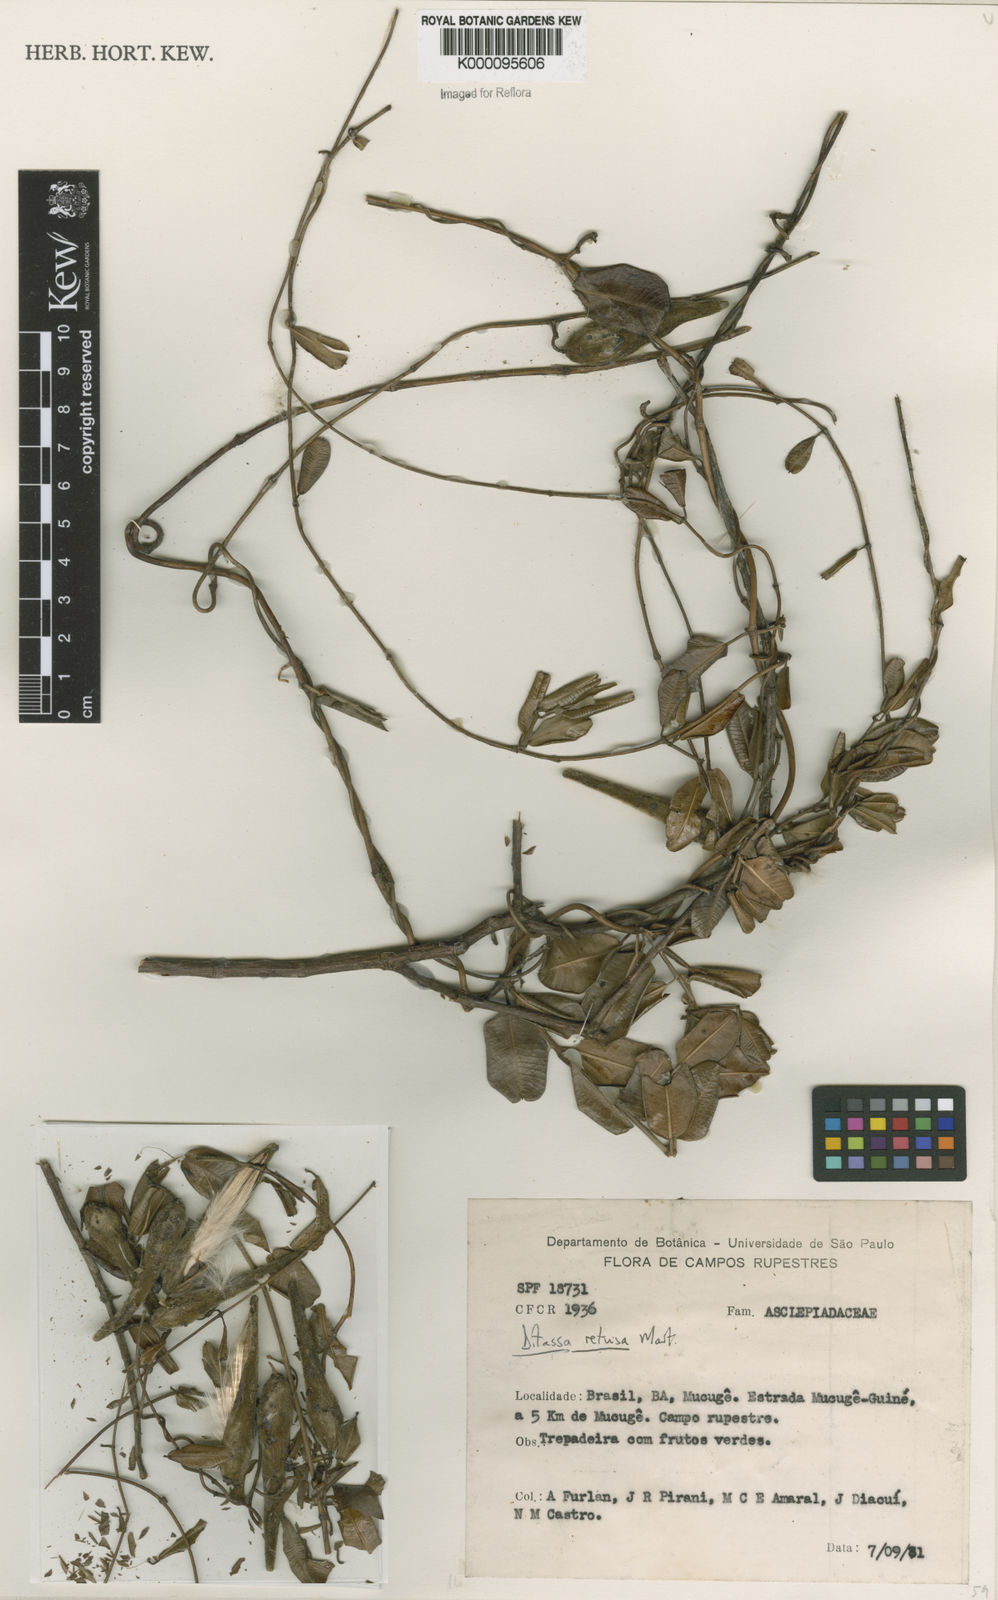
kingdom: Plantae
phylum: Tracheophyta
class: Magnoliopsida
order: Gentianales
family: Apocynaceae
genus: Ditassa
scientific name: Ditassa retusa
